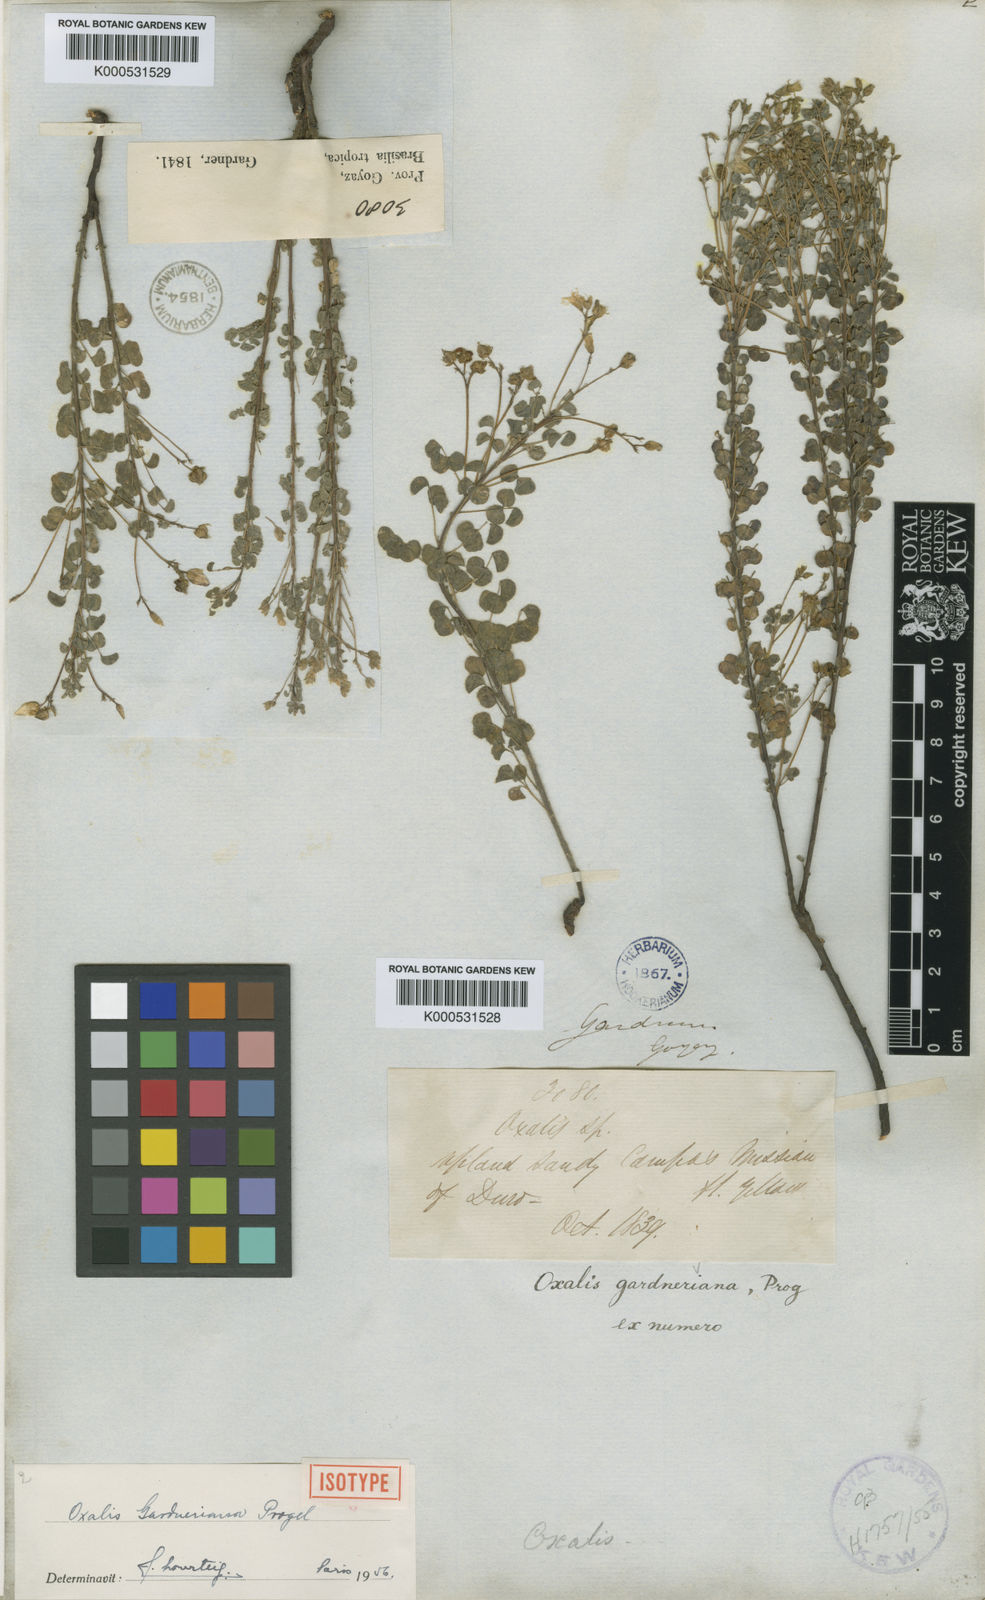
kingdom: Plantae
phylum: Tracheophyta
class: Magnoliopsida
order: Oxalidales
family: Oxalidaceae
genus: Oxalis
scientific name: Oxalis gardneriana
